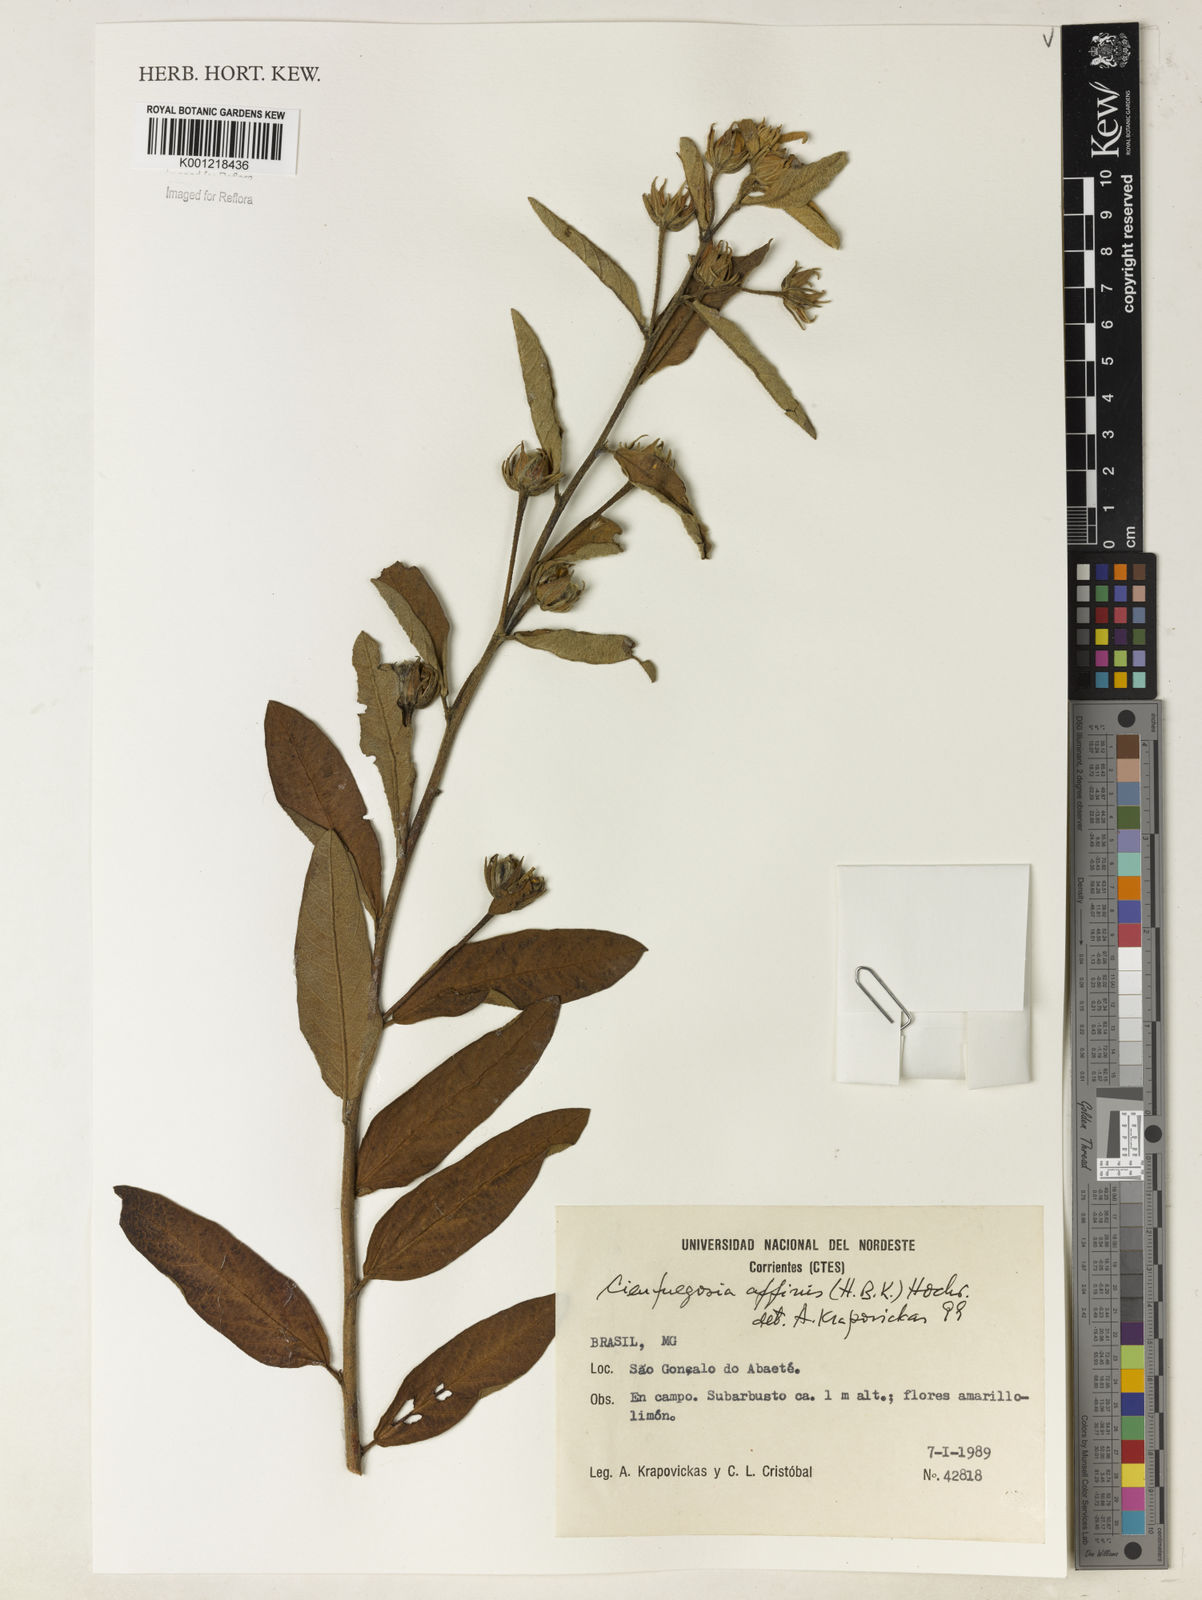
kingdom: Plantae
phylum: Tracheophyta
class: Magnoliopsida
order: Malvales
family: Malvaceae
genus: Cienfuegosia
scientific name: Cienfuegosia affinis
